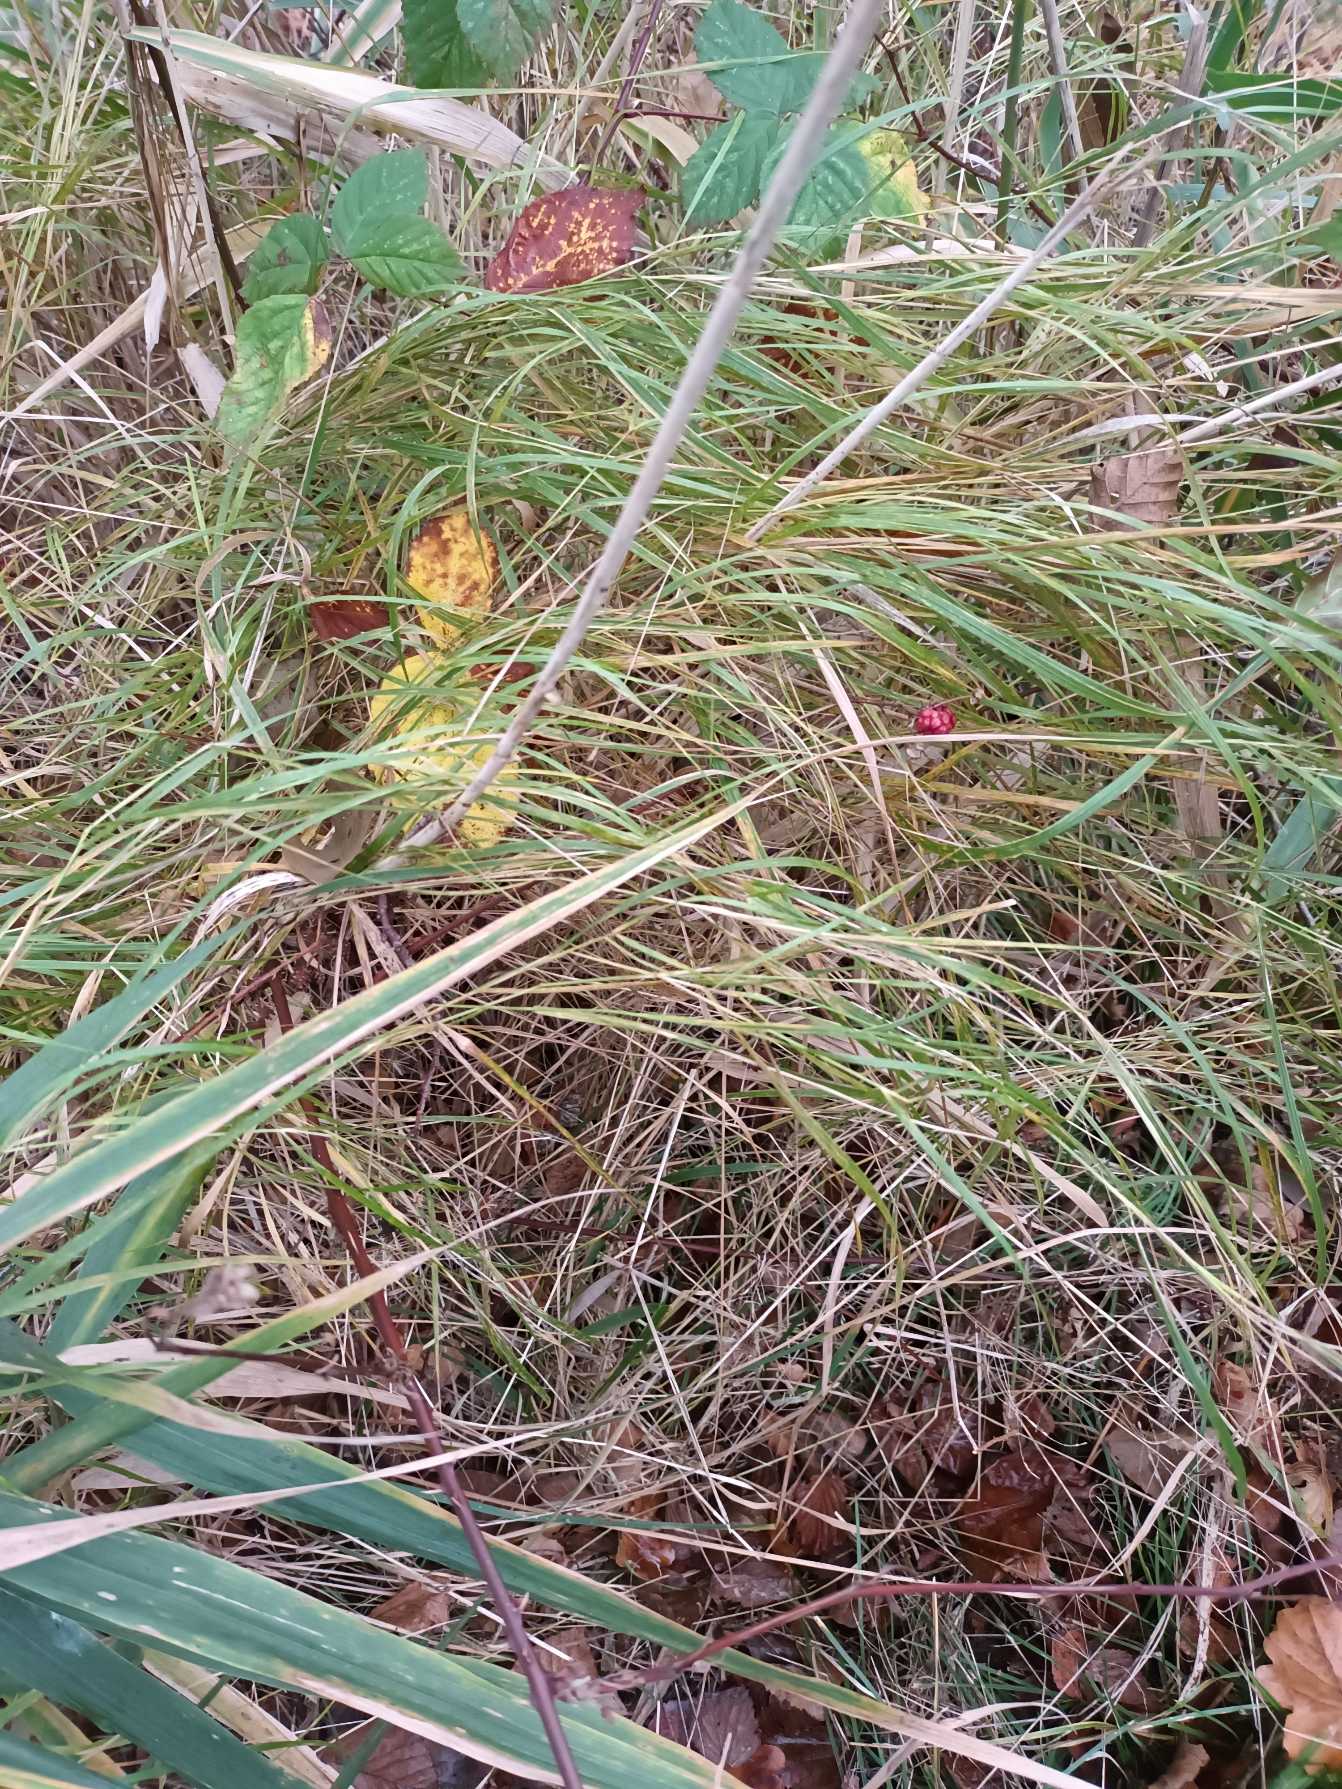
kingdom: Plantae
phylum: Tracheophyta
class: Liliopsida
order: Poales
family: Poaceae
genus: Calamagrostis
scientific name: Calamagrostis canescens
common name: Eng-rørhvene
